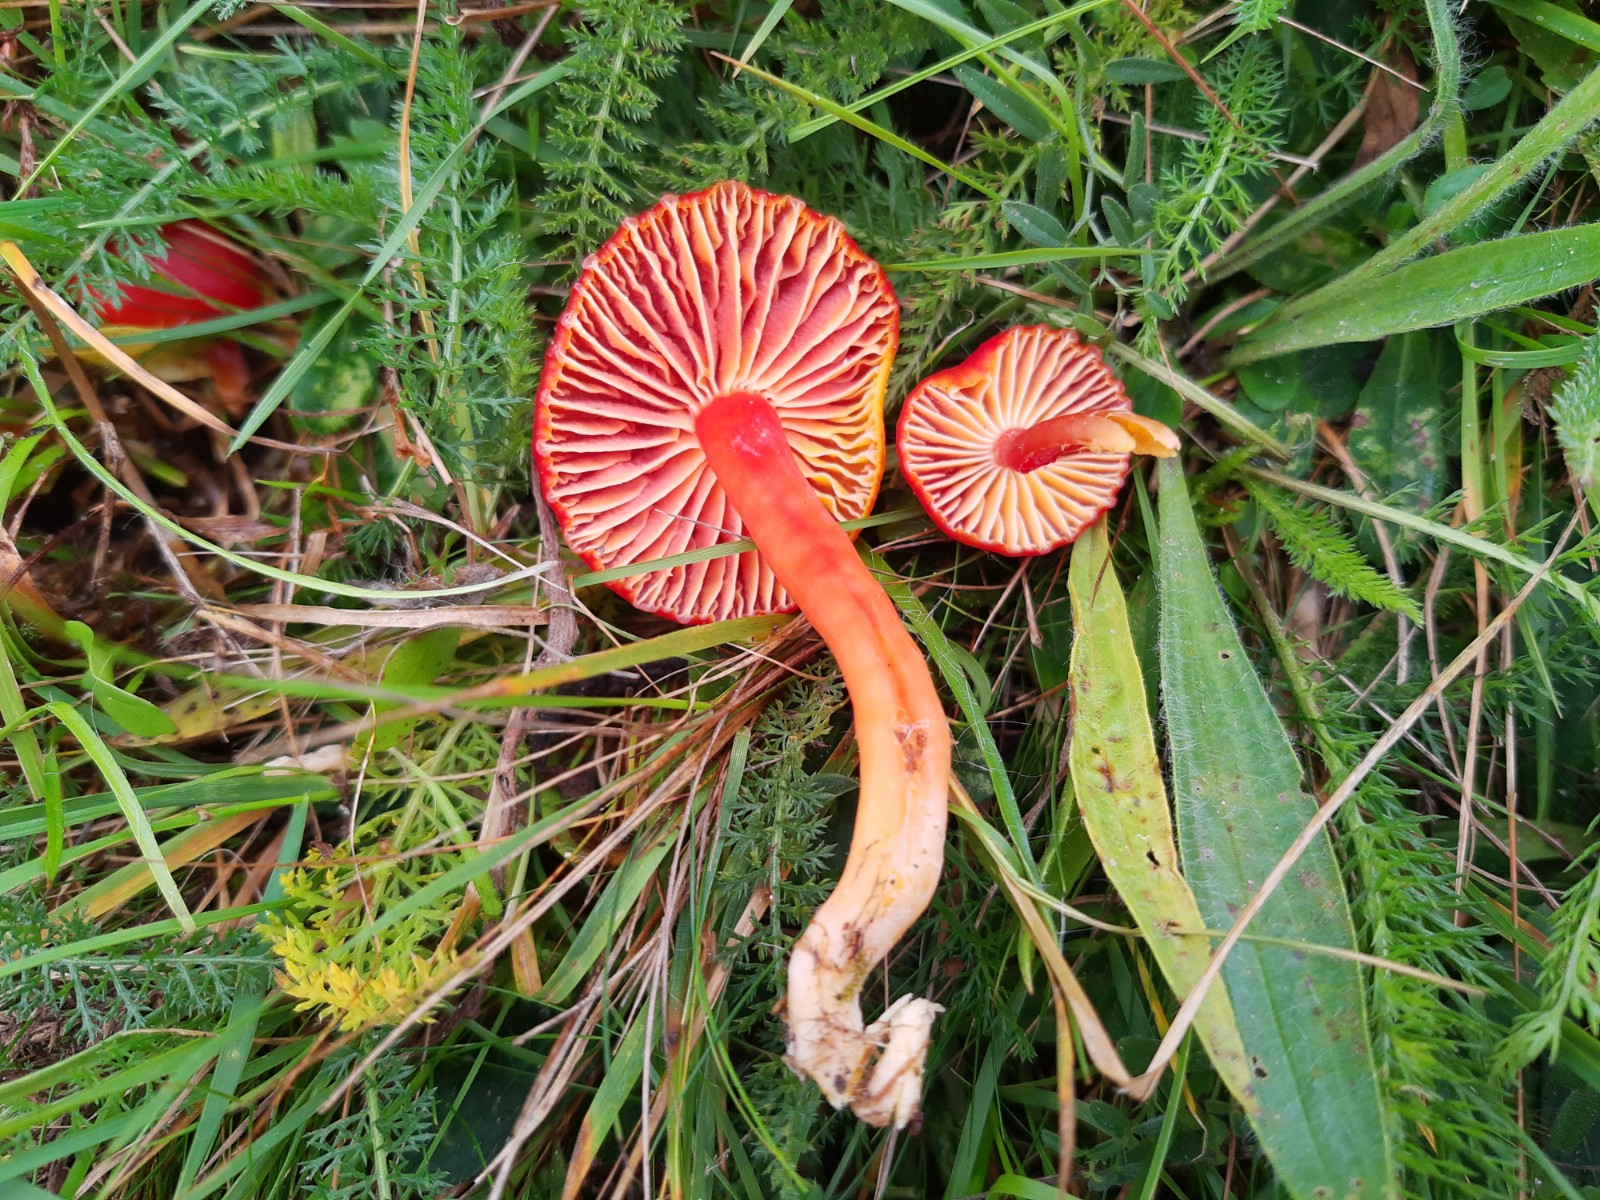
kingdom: Fungi
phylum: Basidiomycota
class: Agaricomycetes
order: Agaricales
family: Hygrophoraceae
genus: Hygrocybe
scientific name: Hygrocybe coccinea
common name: cinnober-vokshat
